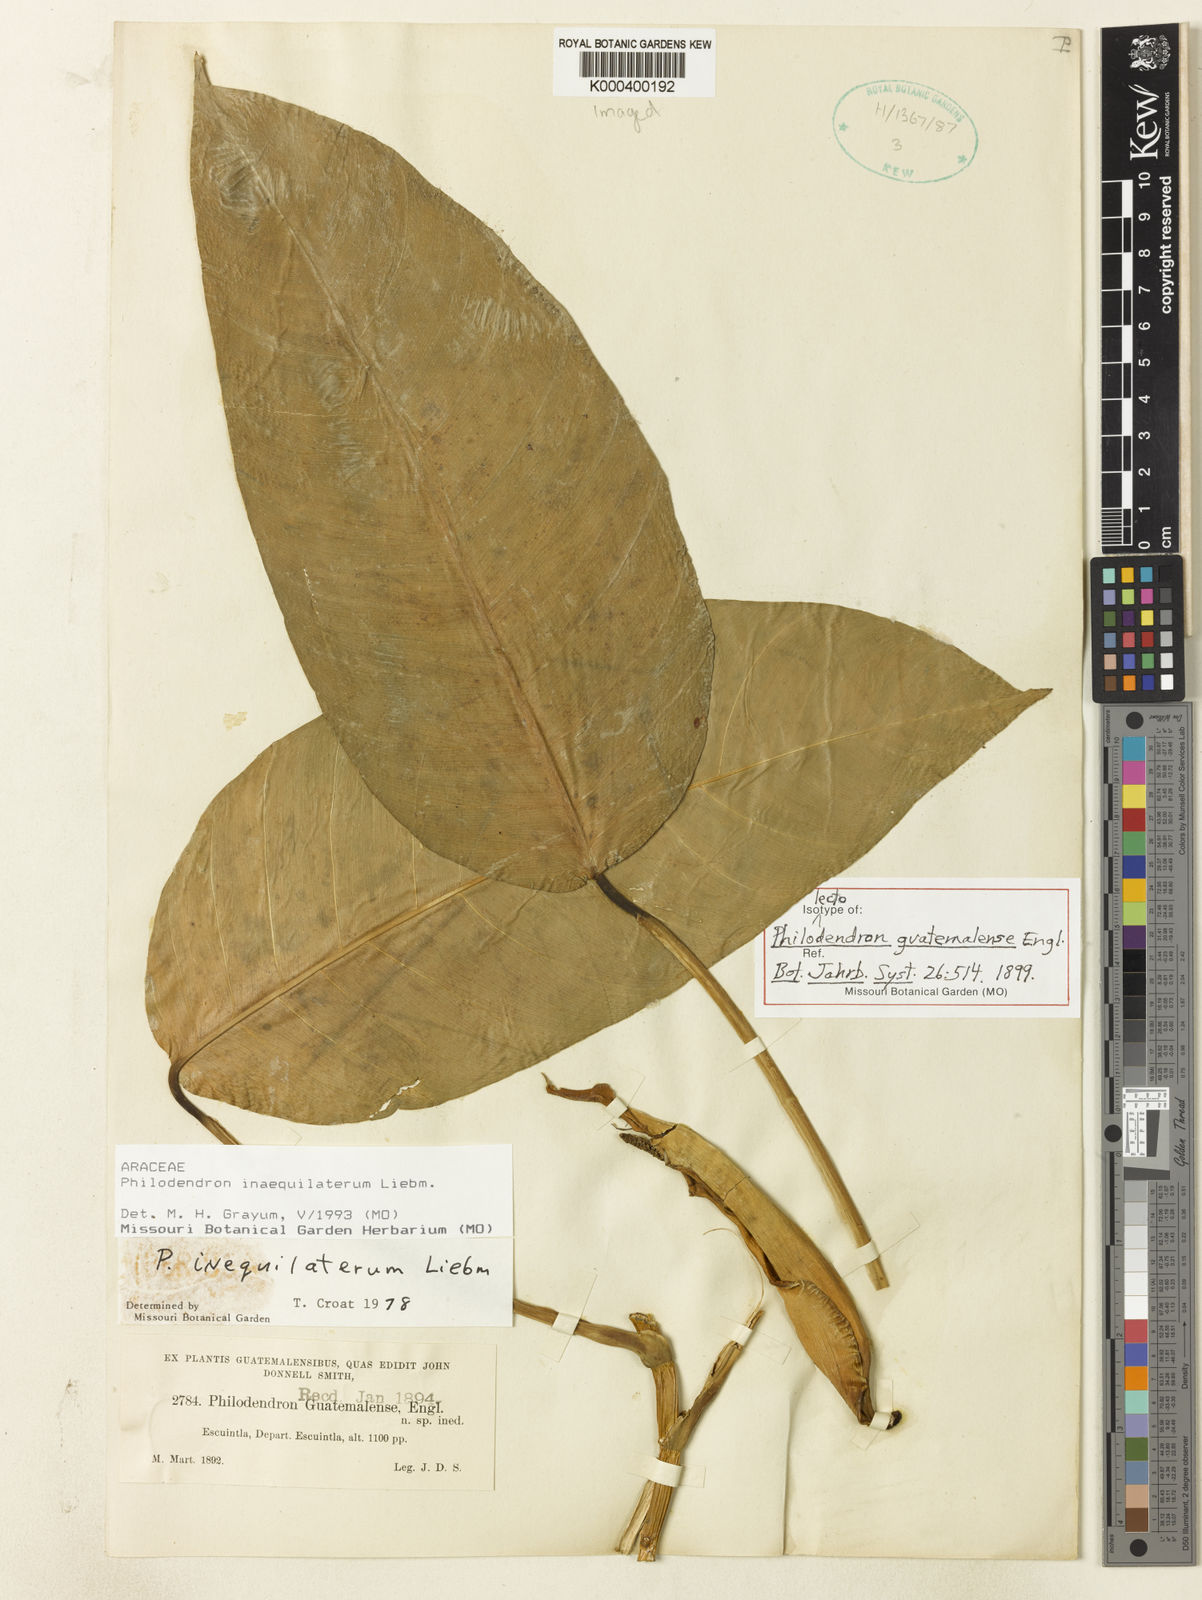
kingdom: Plantae
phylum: Tracheophyta
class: Liliopsida
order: Alismatales
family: Araceae
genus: Philodendron
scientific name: Philodendron inaequilaterum
